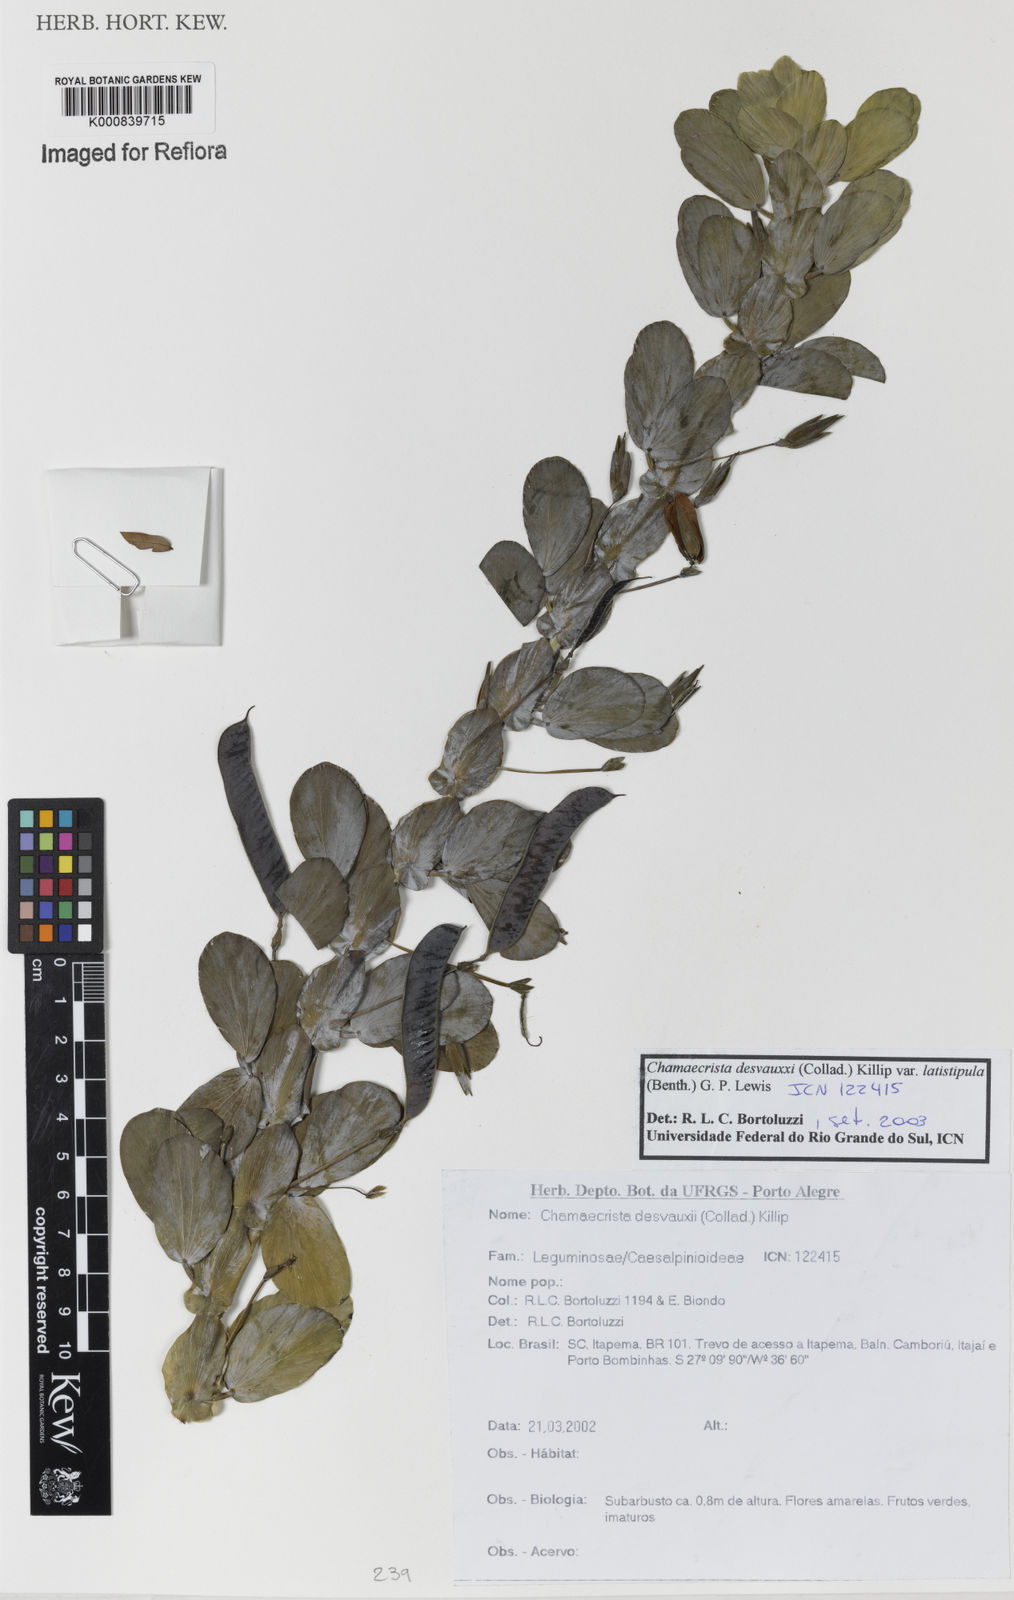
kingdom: Plantae
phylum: Tracheophyta
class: Magnoliopsida
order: Fabales
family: Fabaceae
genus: Chamaecrista
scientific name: Chamaecrista desvauxii
